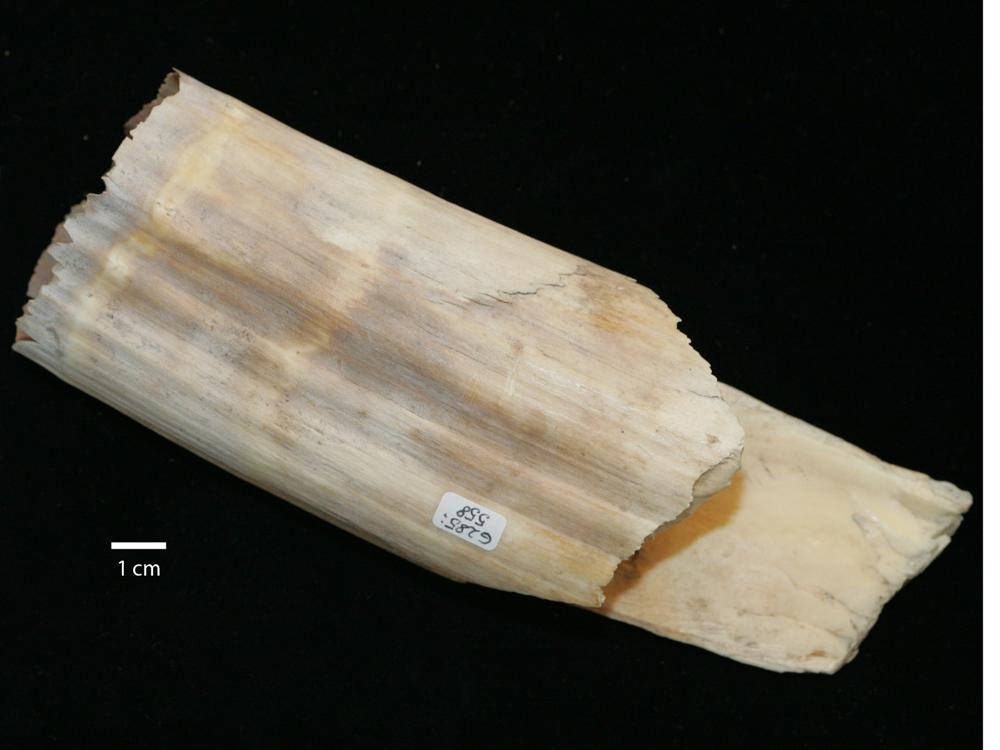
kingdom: Animalia
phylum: Chordata
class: Mammalia
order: Carnivora
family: Odobenidae
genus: Odobenus
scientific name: Odobenus rosmarus
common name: Walrus
